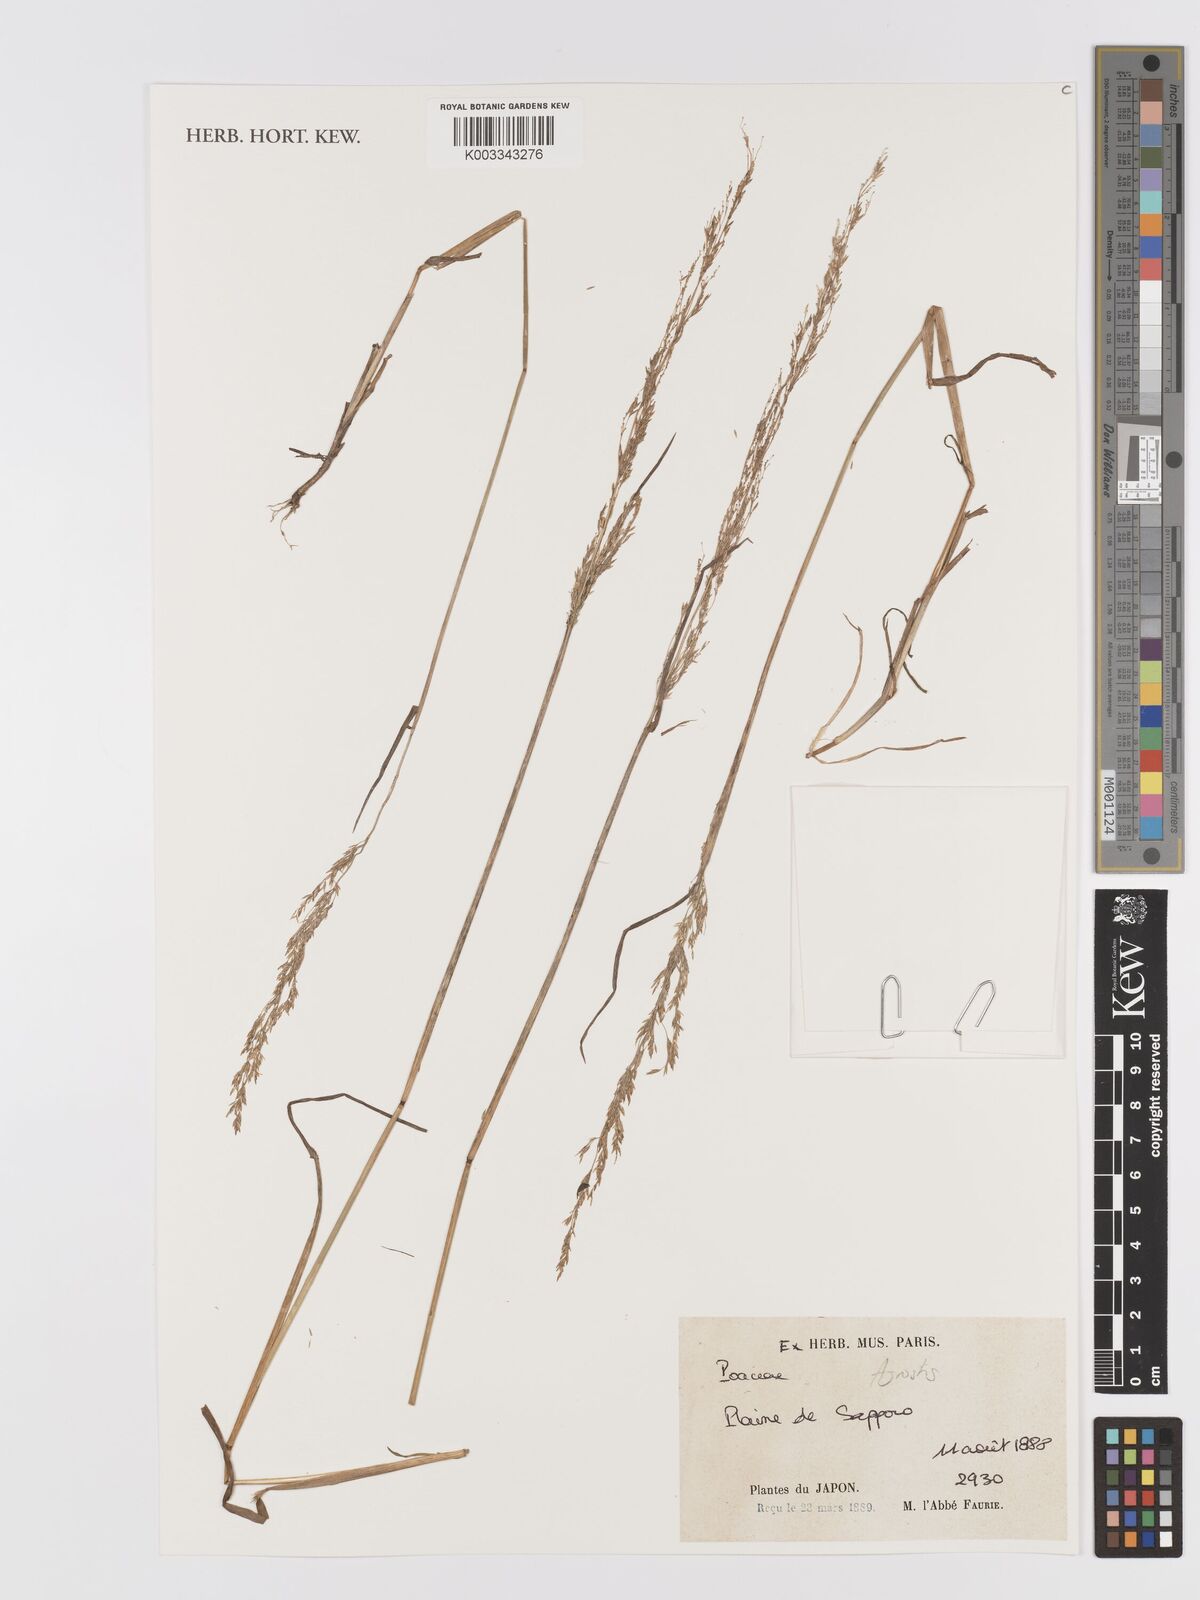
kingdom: Plantae
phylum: Tracheophyta
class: Liliopsida
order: Poales
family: Poaceae
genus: Agrostis
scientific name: Agrostis
